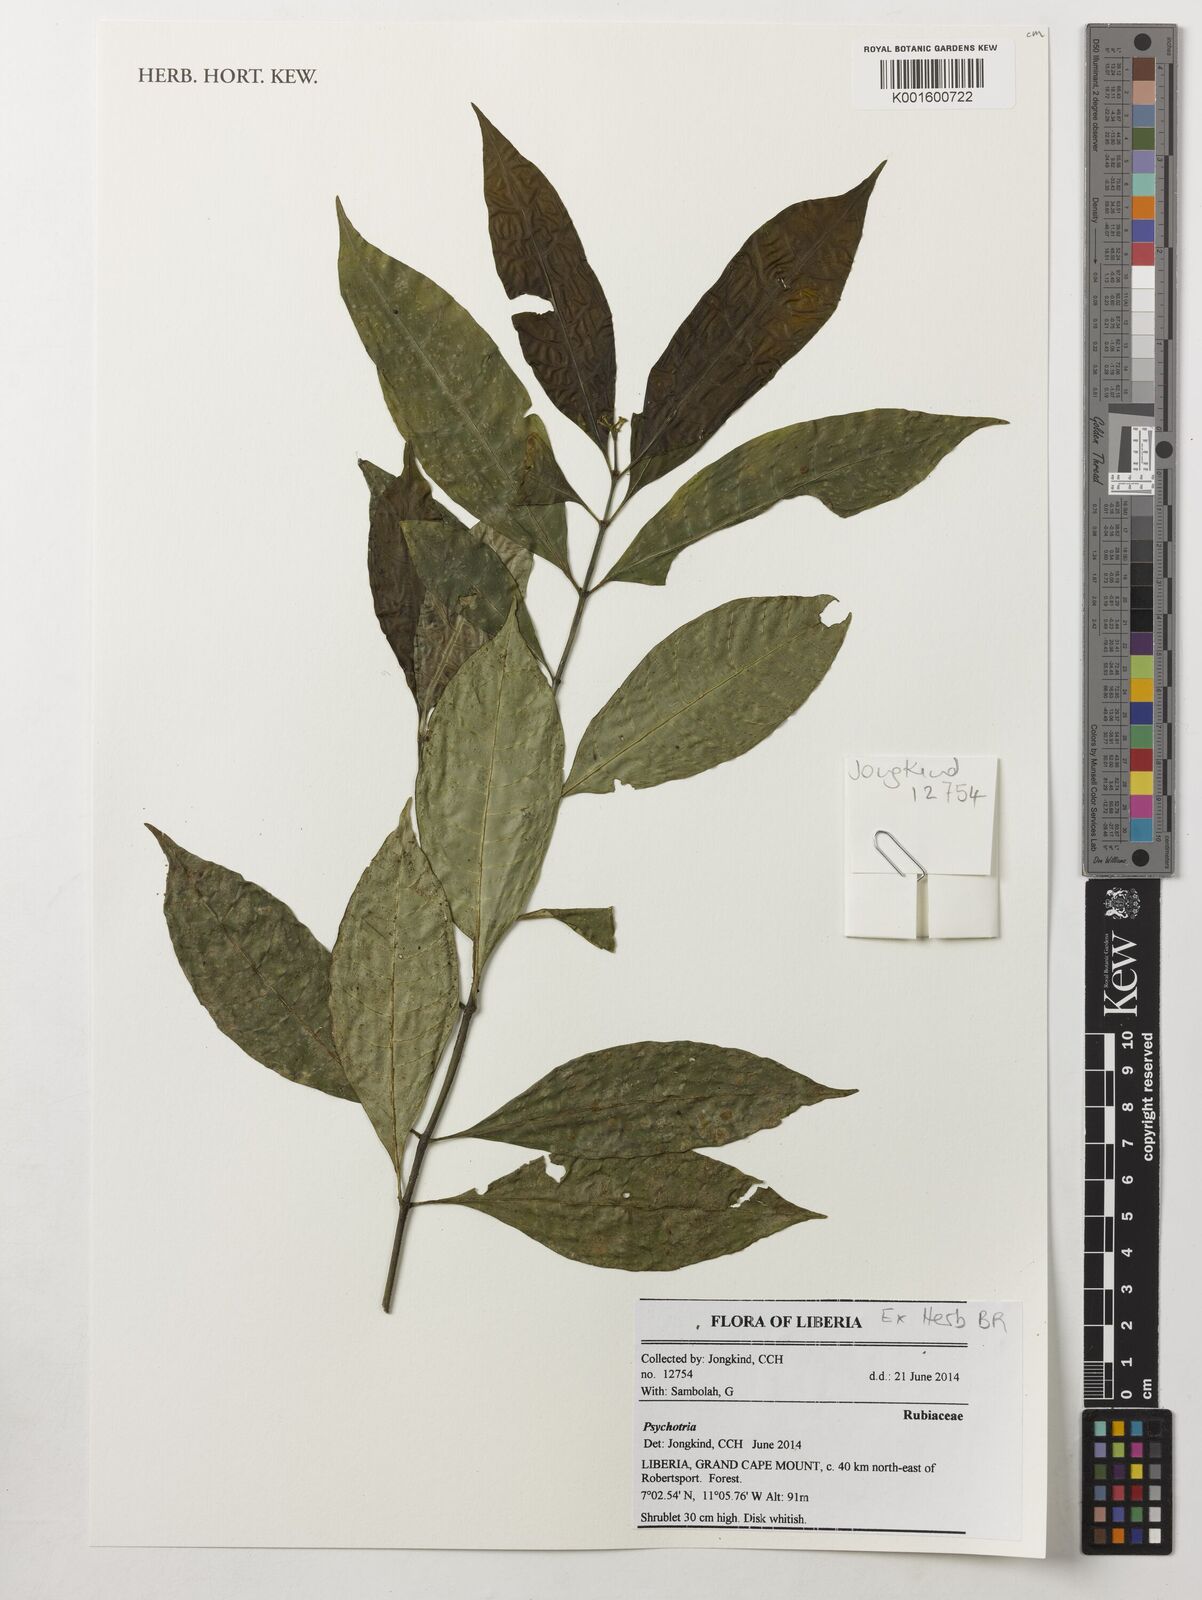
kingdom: Plantae
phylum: Tracheophyta
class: Magnoliopsida
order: Gentianales
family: Rubiaceae
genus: Psychotria
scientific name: Psychotria
